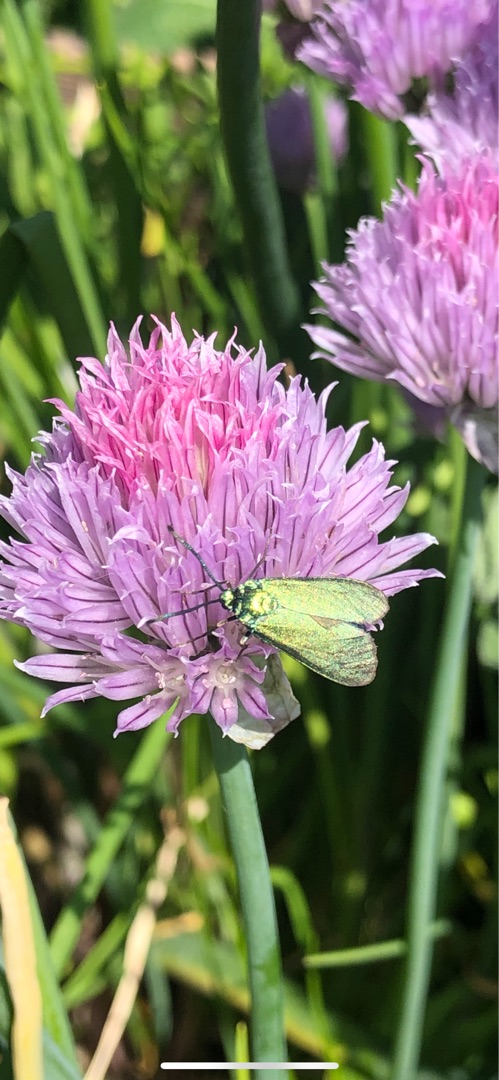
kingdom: Animalia
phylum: Arthropoda
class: Insecta
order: Lepidoptera
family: Zygaenidae
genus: Adscita
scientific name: Adscita statices
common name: Metalvinge
